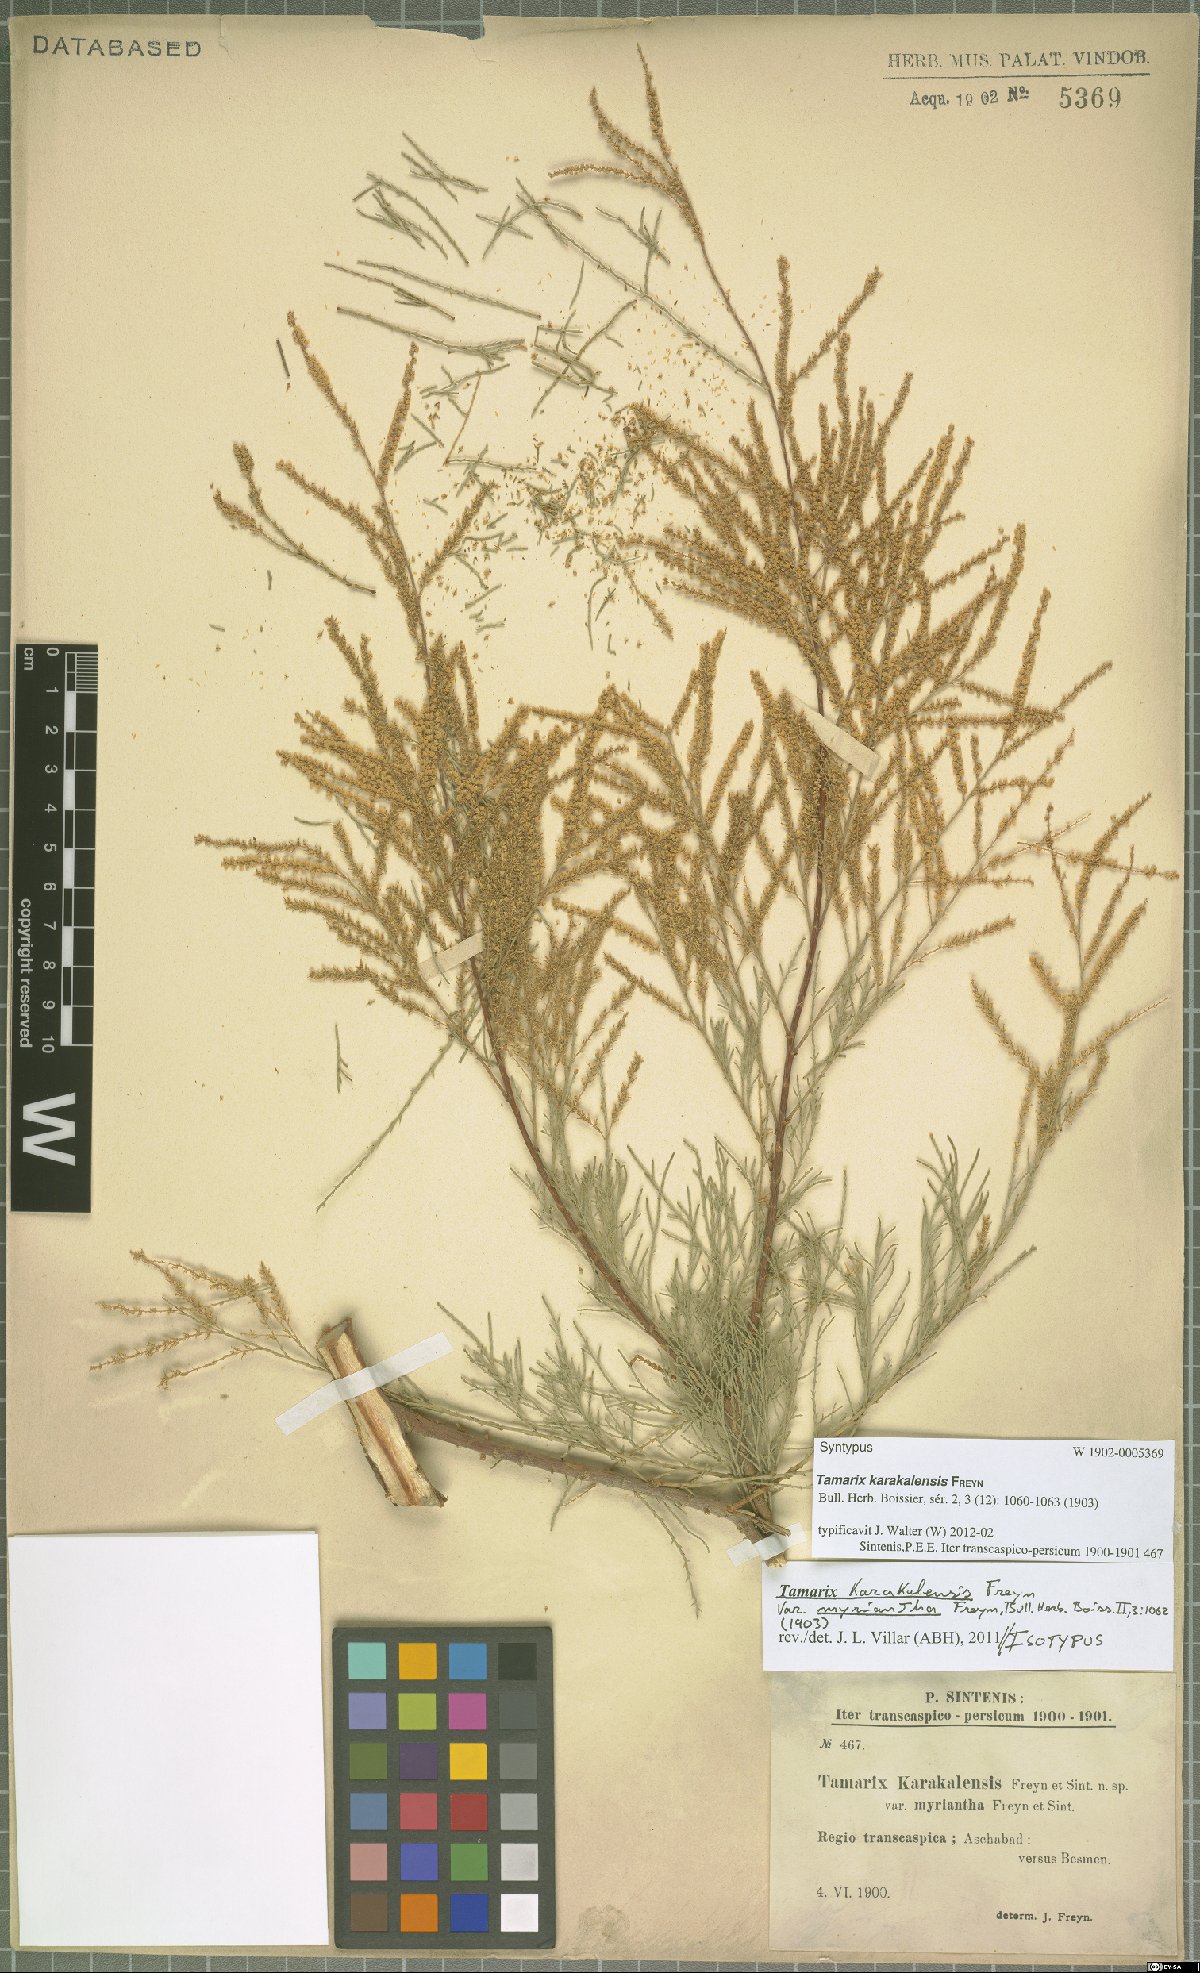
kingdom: Plantae
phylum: Tracheophyta
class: Magnoliopsida
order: Caryophyllales
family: Tamaricaceae
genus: Tamarix
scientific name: Tamarix florida
